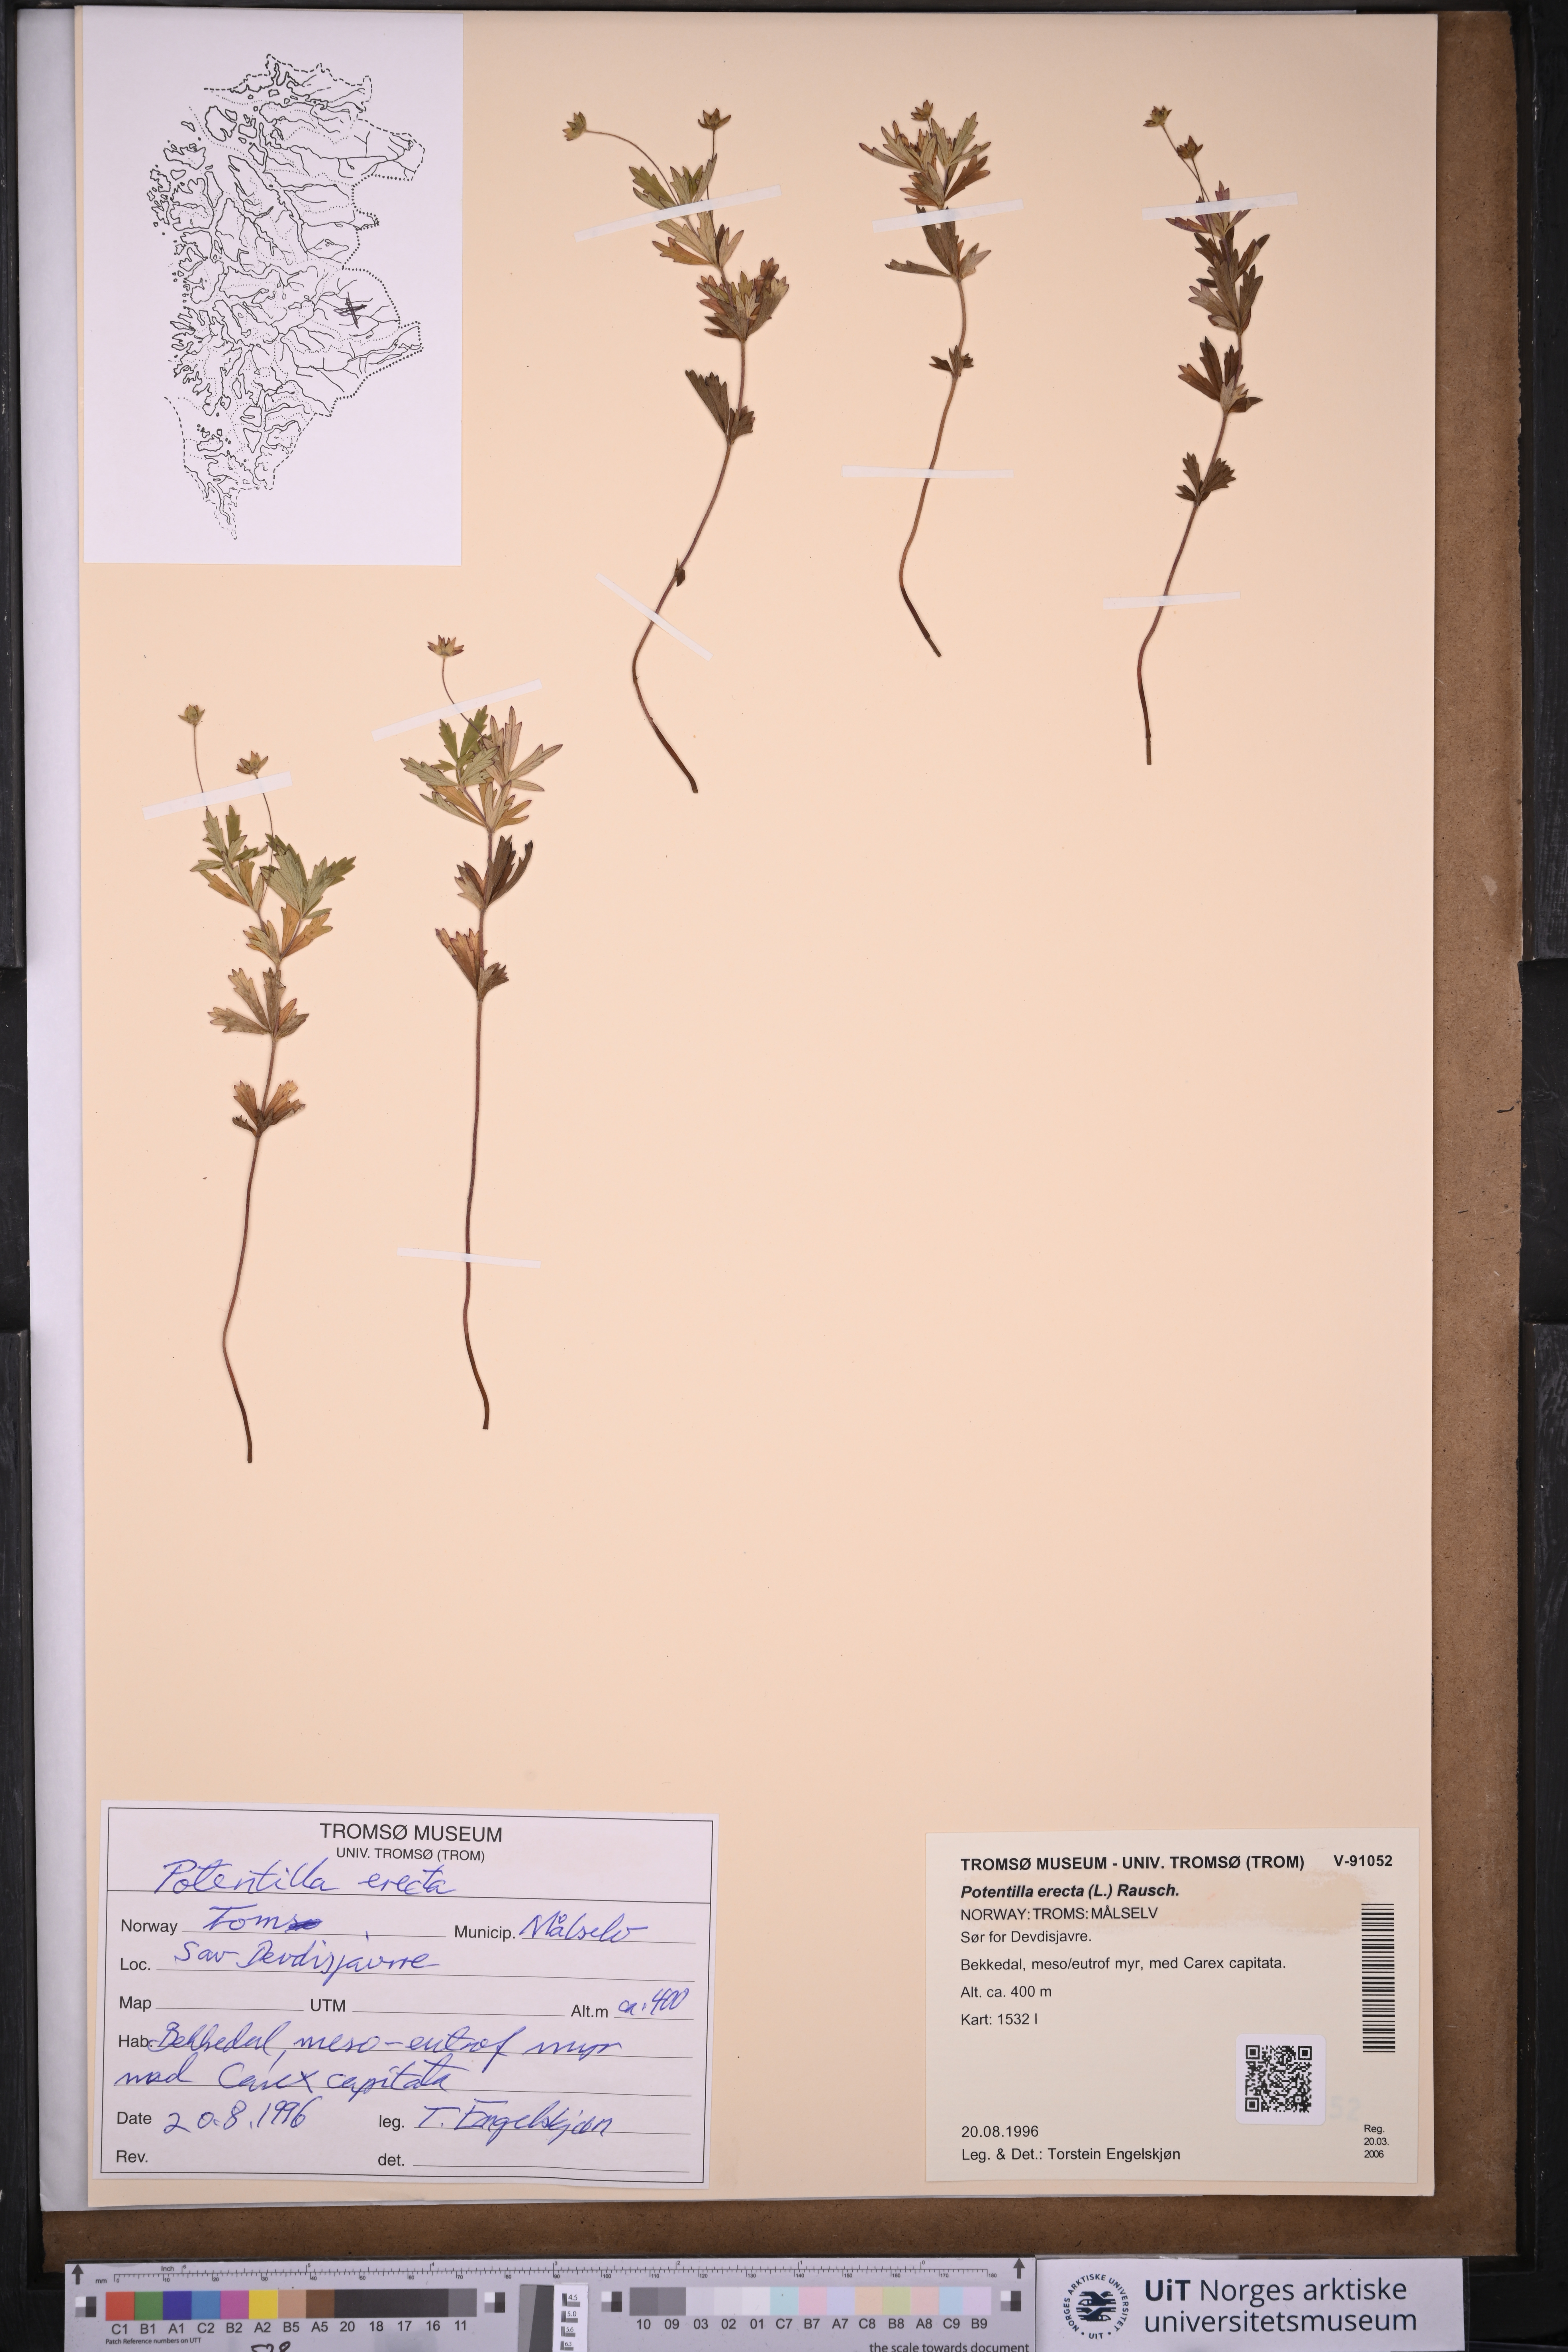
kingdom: Plantae
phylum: Tracheophyta
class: Magnoliopsida
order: Rosales
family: Rosaceae
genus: Potentilla
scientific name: Potentilla erecta
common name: Tormentil
